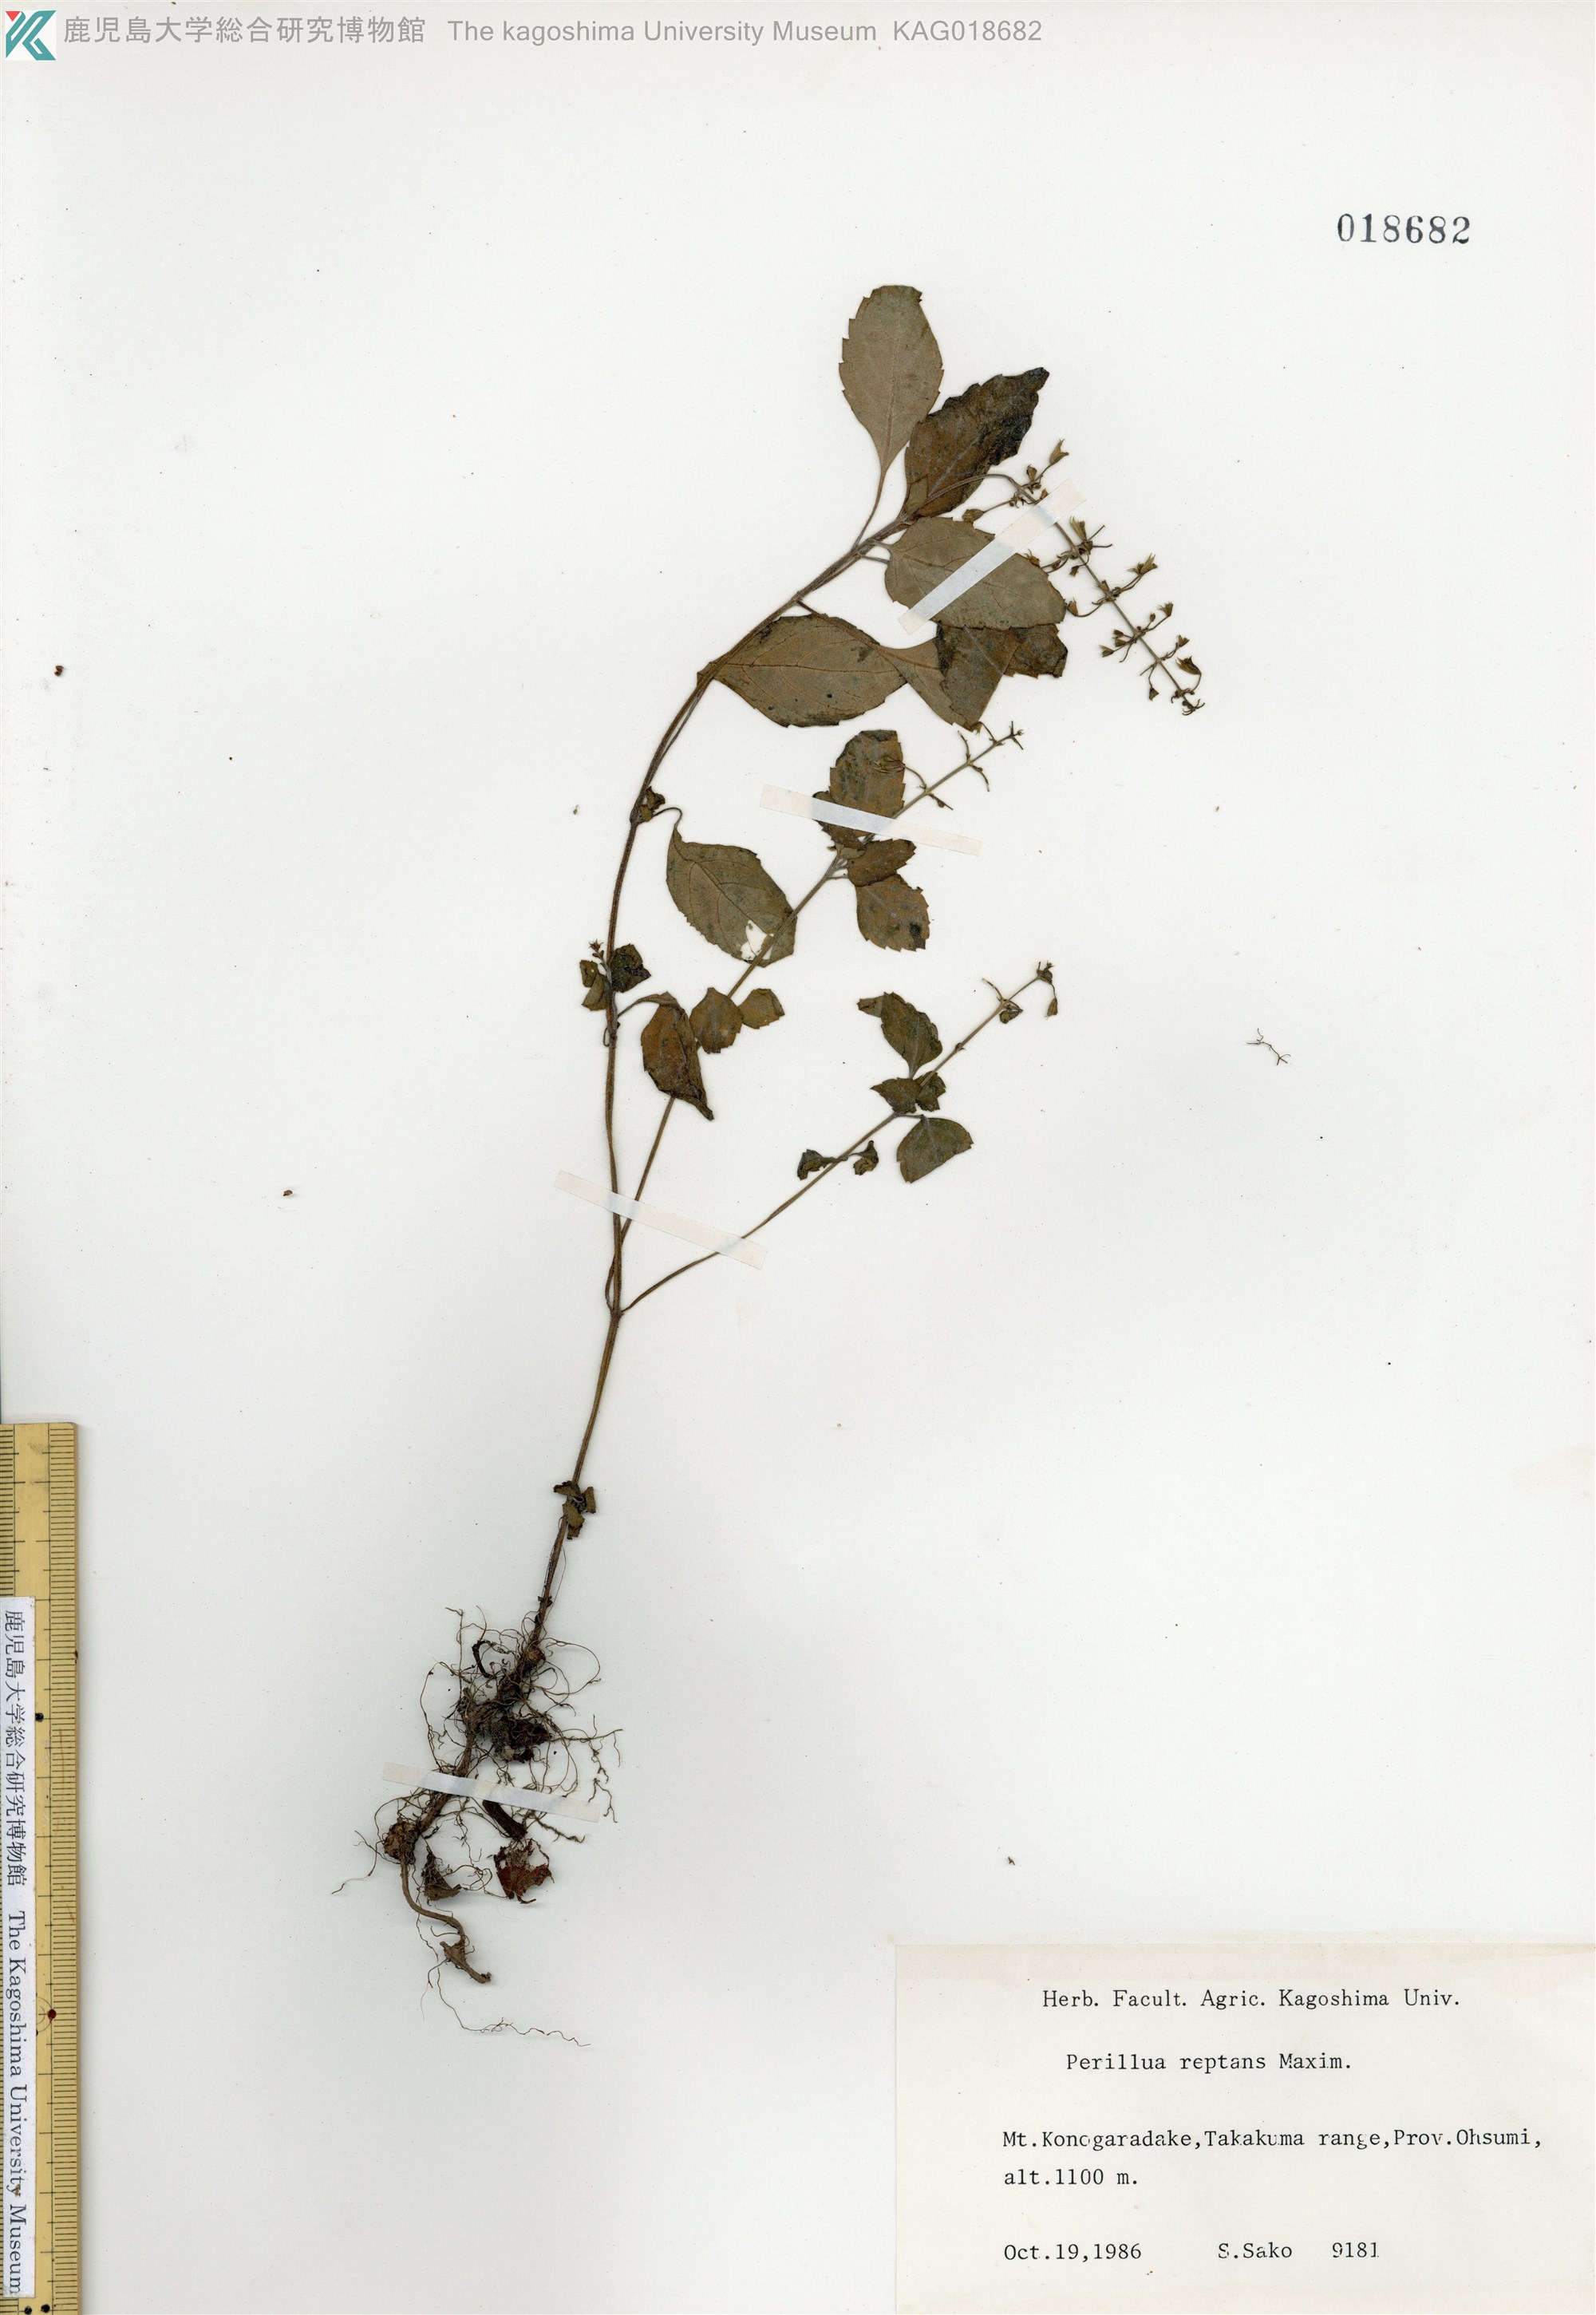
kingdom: Plantae
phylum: Tracheophyta
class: Magnoliopsida
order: Lamiales
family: Lamiaceae
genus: Perillula
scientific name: Perillula reptans
